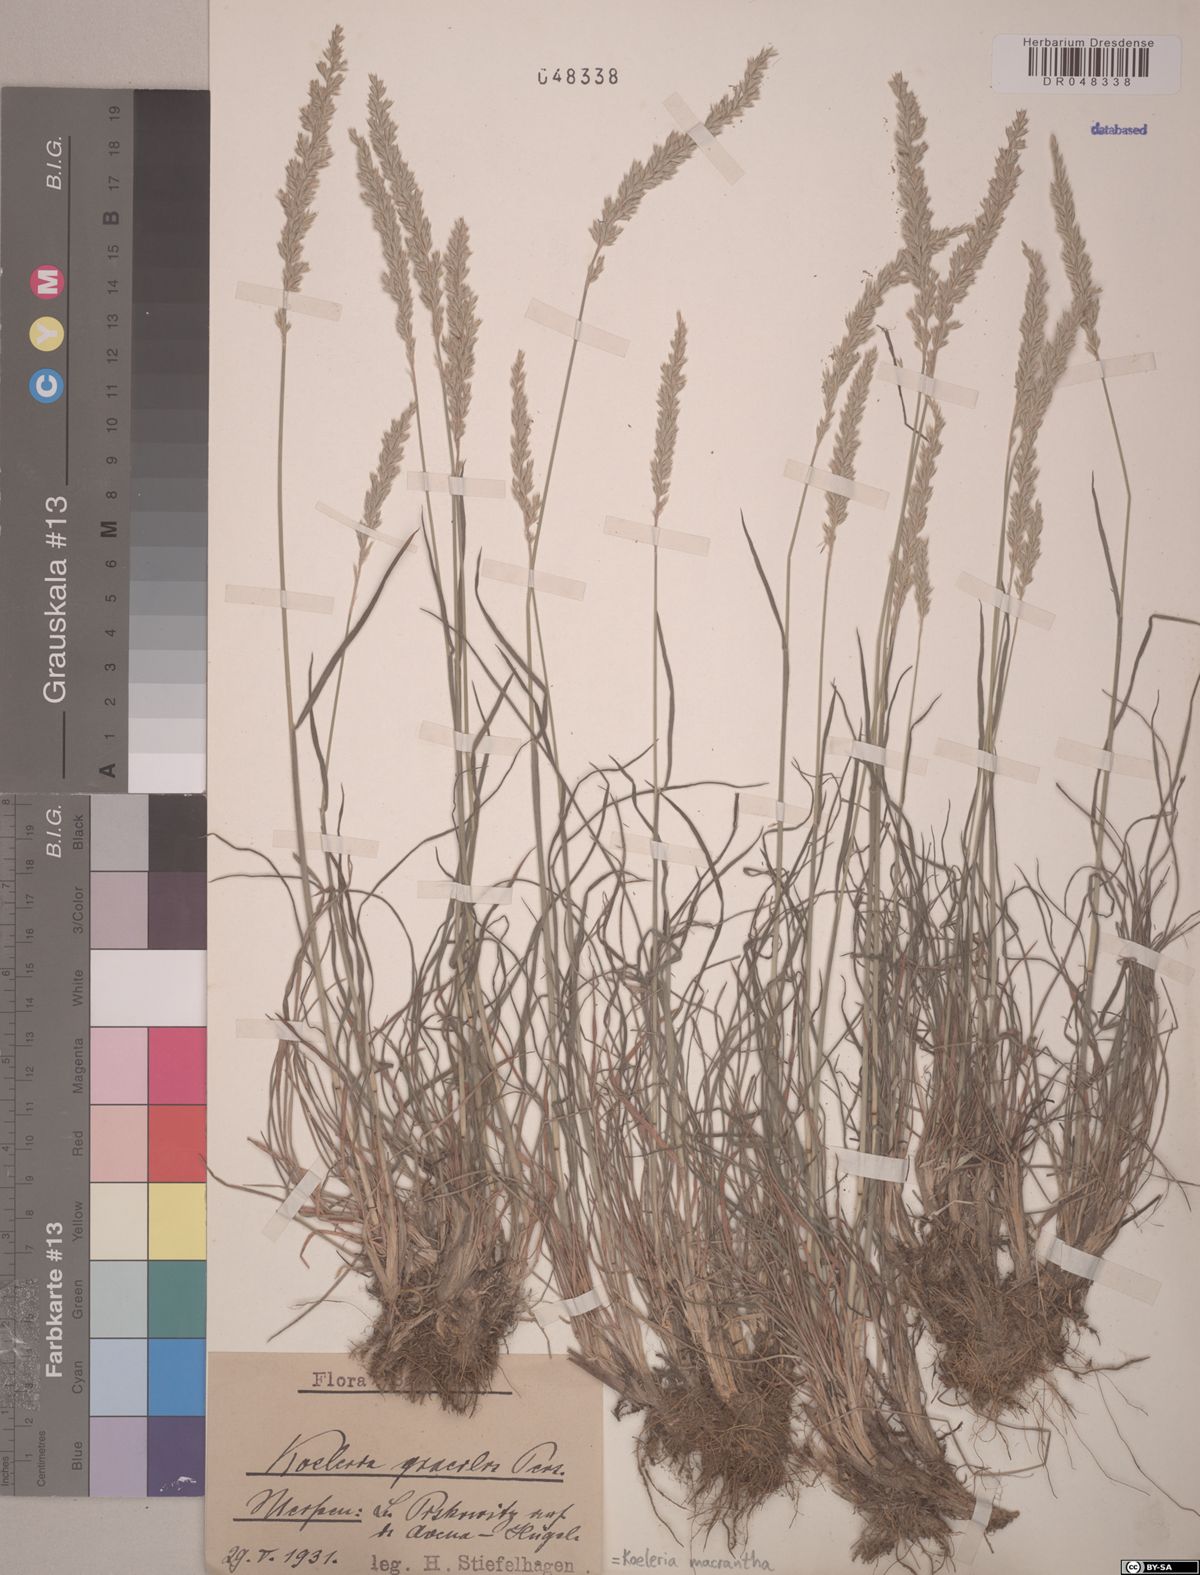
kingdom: Plantae
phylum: Tracheophyta
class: Liliopsida
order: Poales
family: Poaceae
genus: Koeleria
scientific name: Koeleria macrantha
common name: Crested hair-grass
